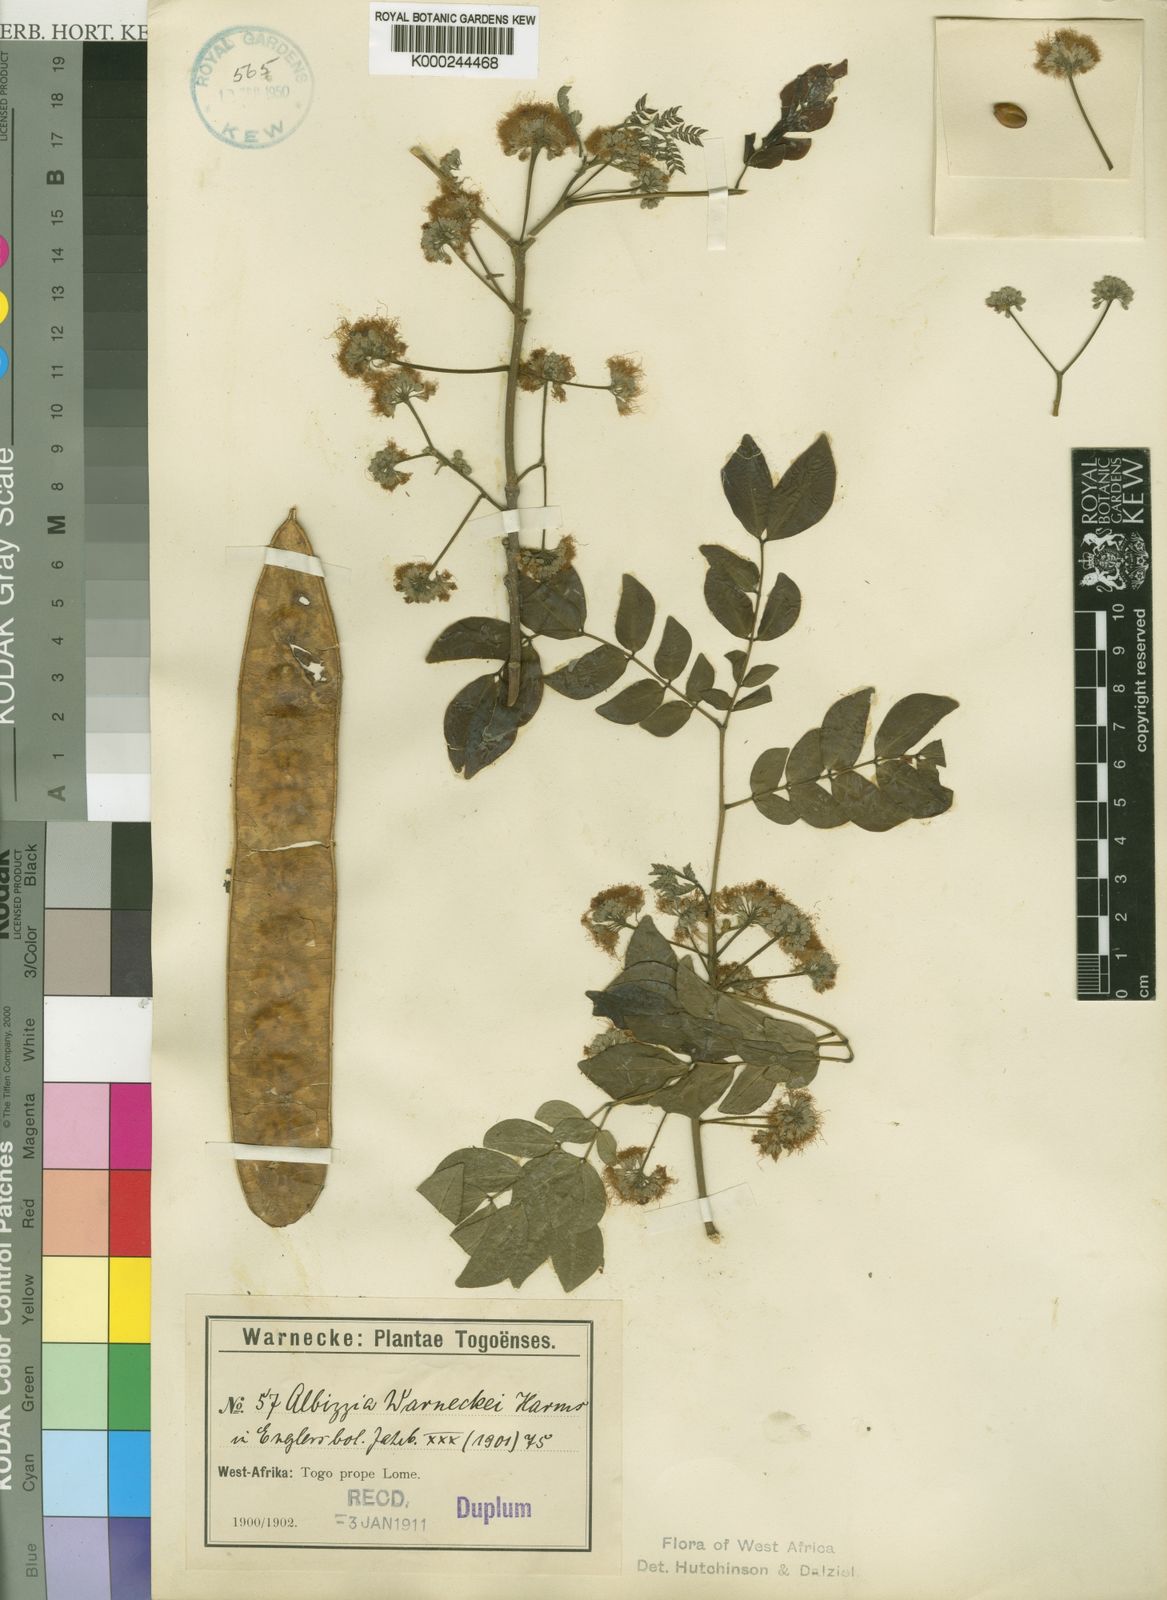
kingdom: Plantae
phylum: Tracheophyta
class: Magnoliopsida
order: Fabales
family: Fabaceae
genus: Albizia
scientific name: Albizia glaberrima
